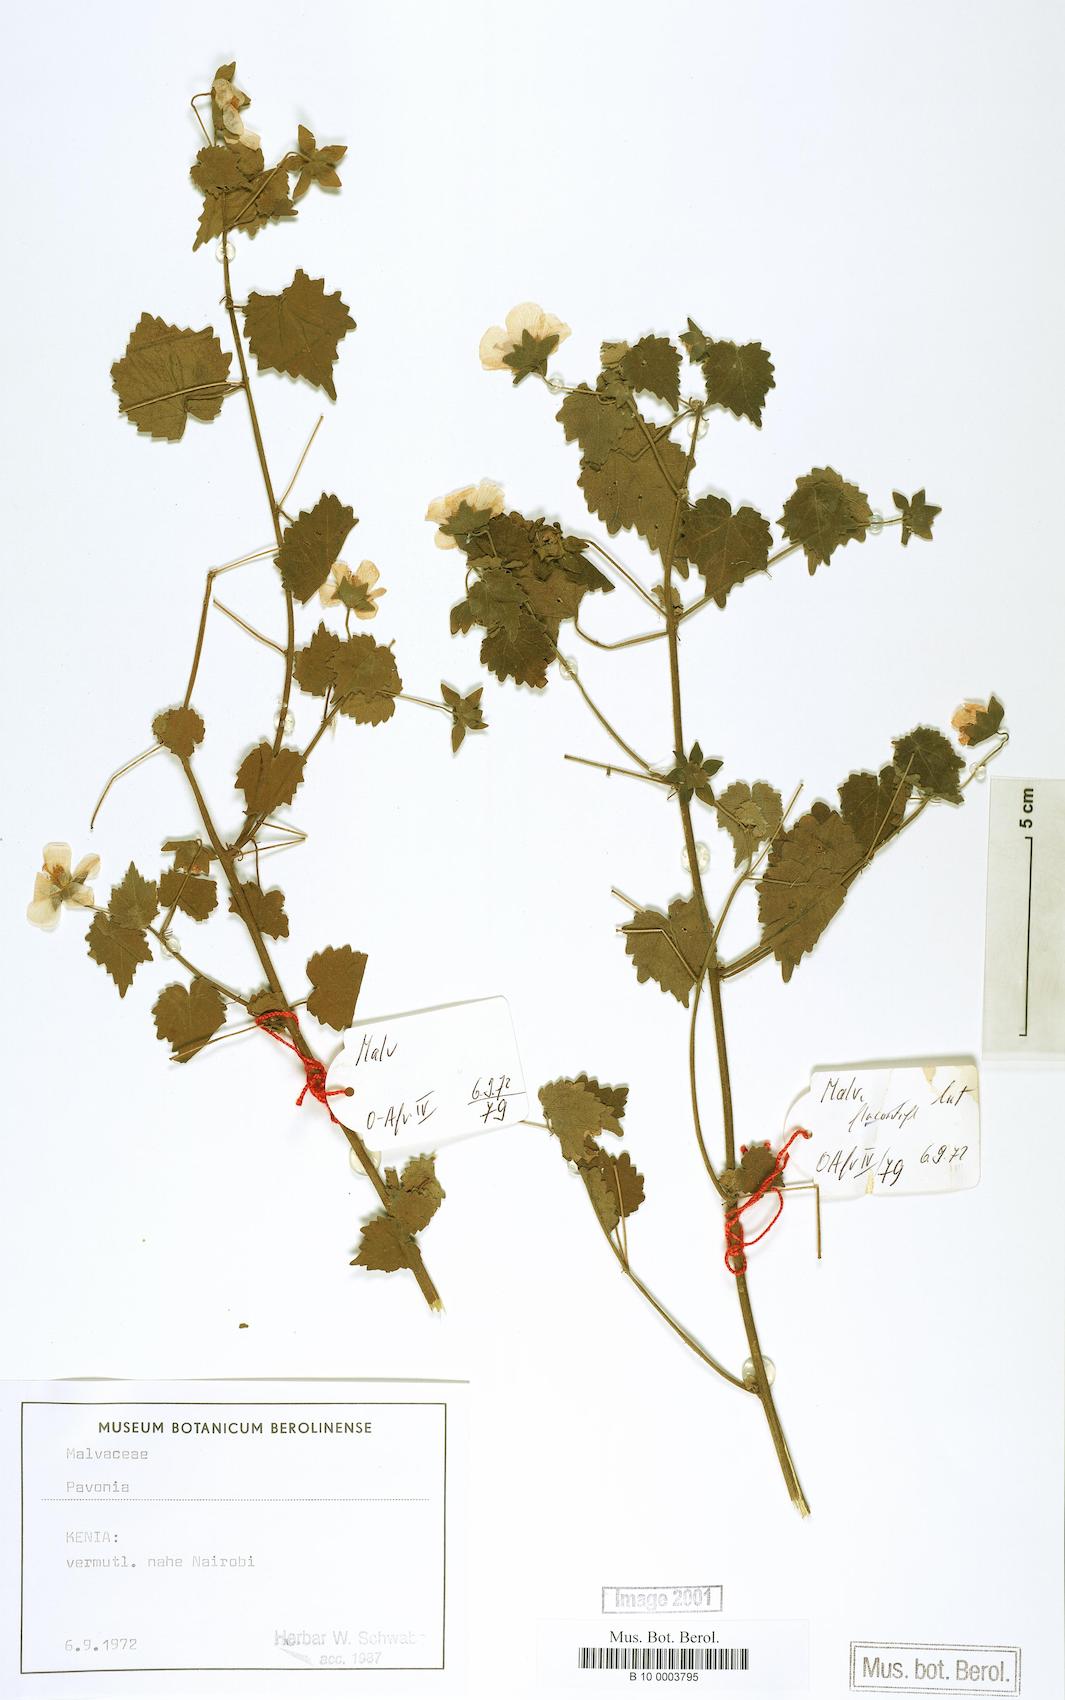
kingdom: Plantae
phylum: Tracheophyta
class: Magnoliopsida
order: Malvales
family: Malvaceae
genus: Pavonia
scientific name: Pavonia
